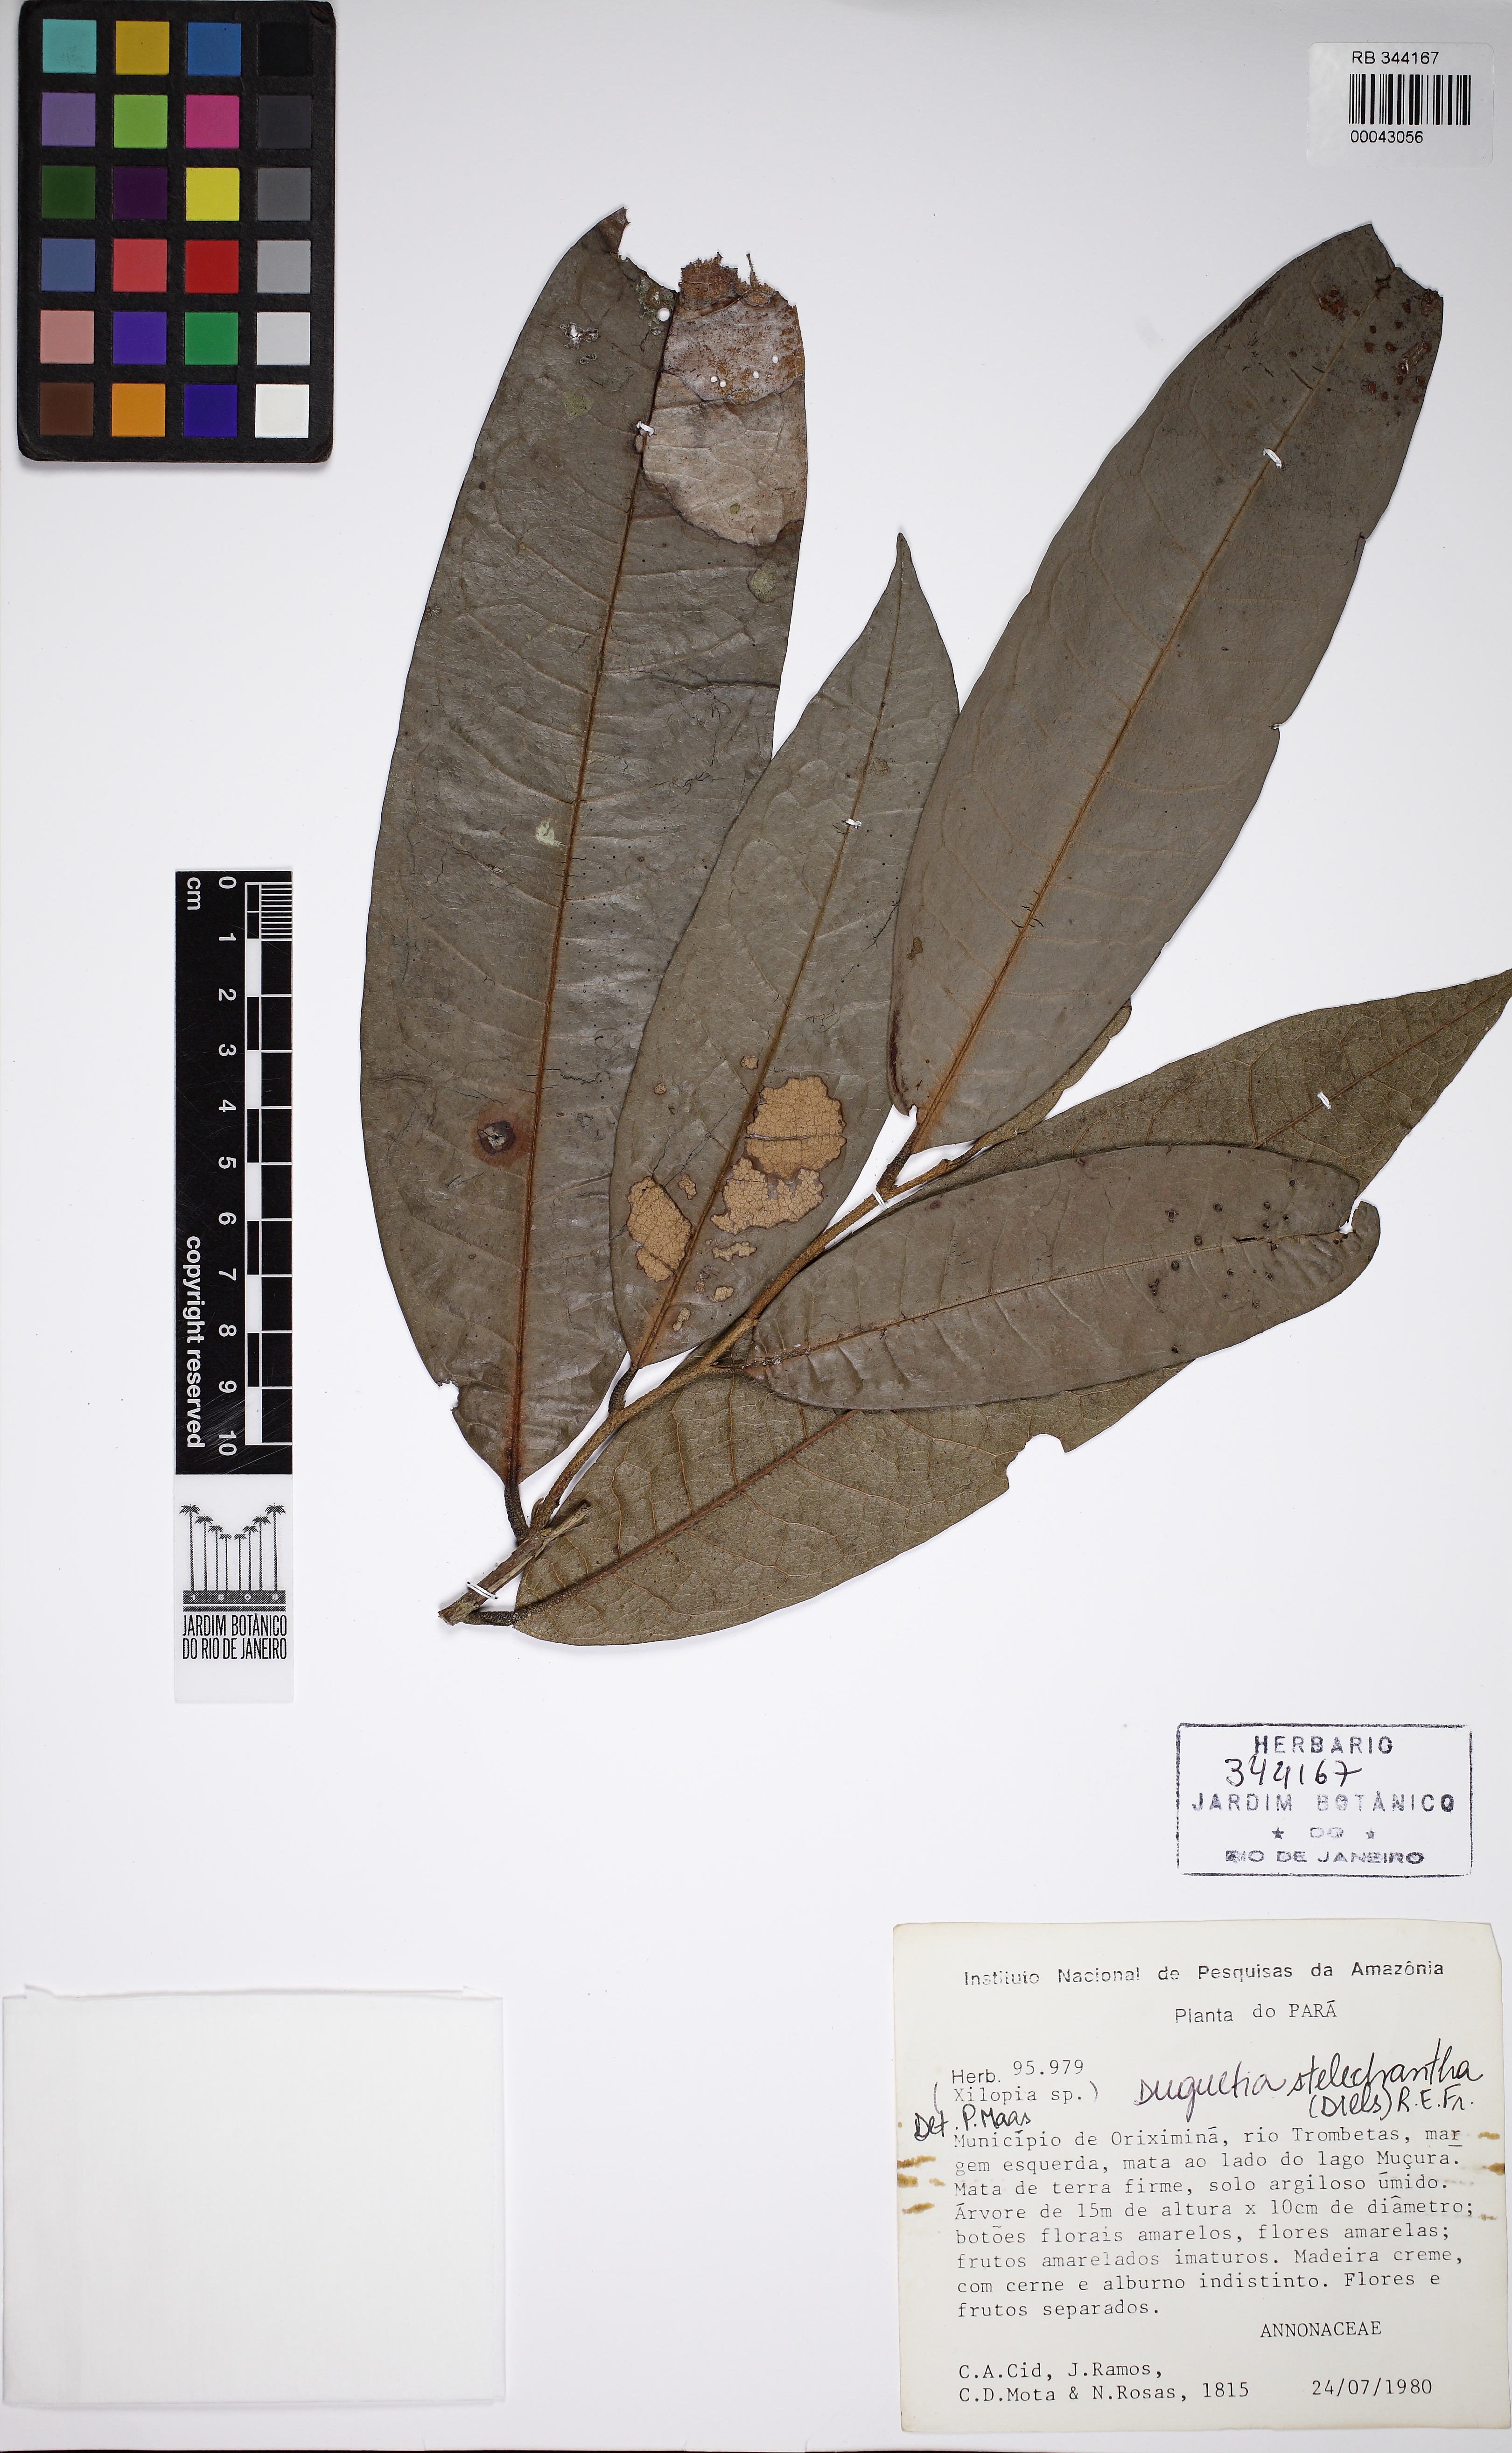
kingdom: Plantae
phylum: Tracheophyta
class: Magnoliopsida
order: Magnoliales
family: Annonaceae
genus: Duguetia
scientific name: Duguetia stelechantha
